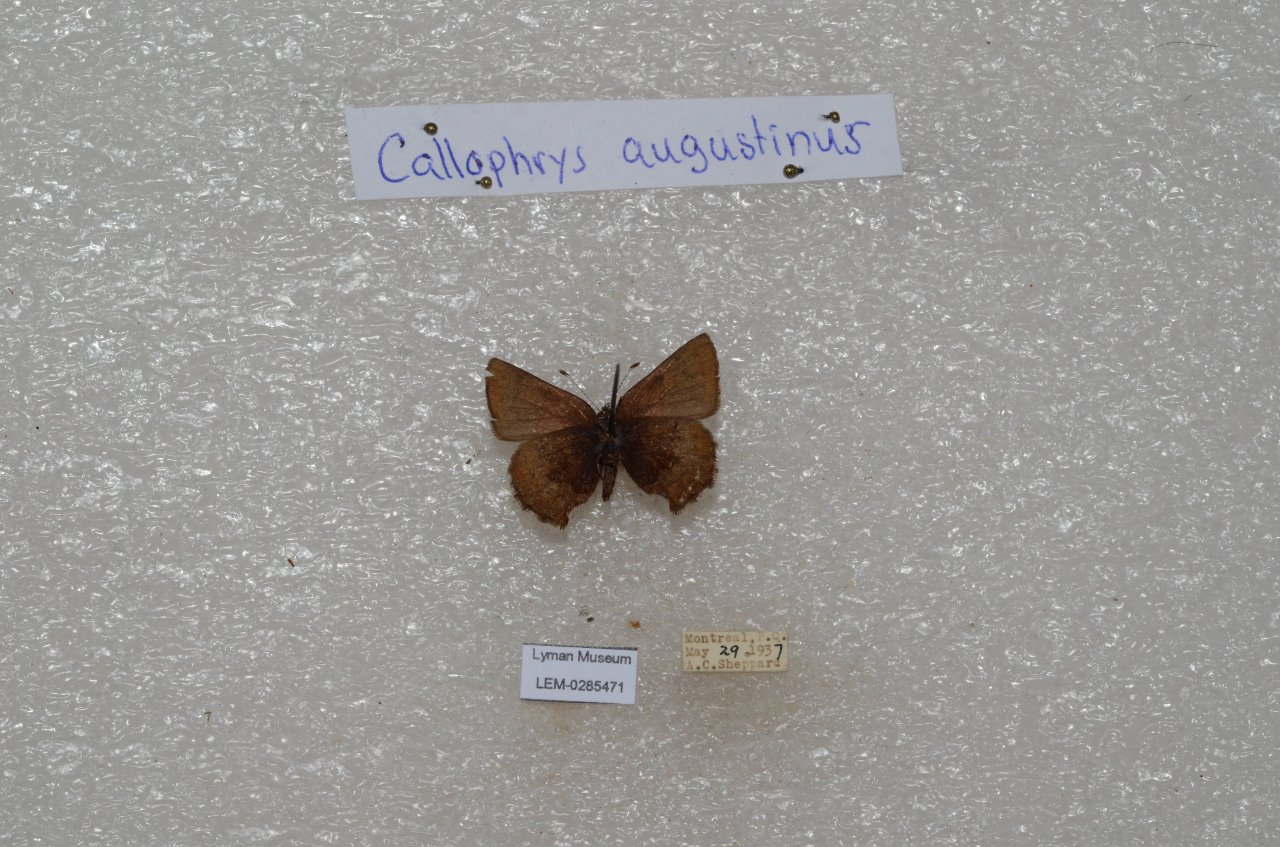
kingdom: Animalia
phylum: Arthropoda
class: Insecta
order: Lepidoptera
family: Lycaenidae
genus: Incisalia
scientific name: Incisalia irioides
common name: Brown Elfin
